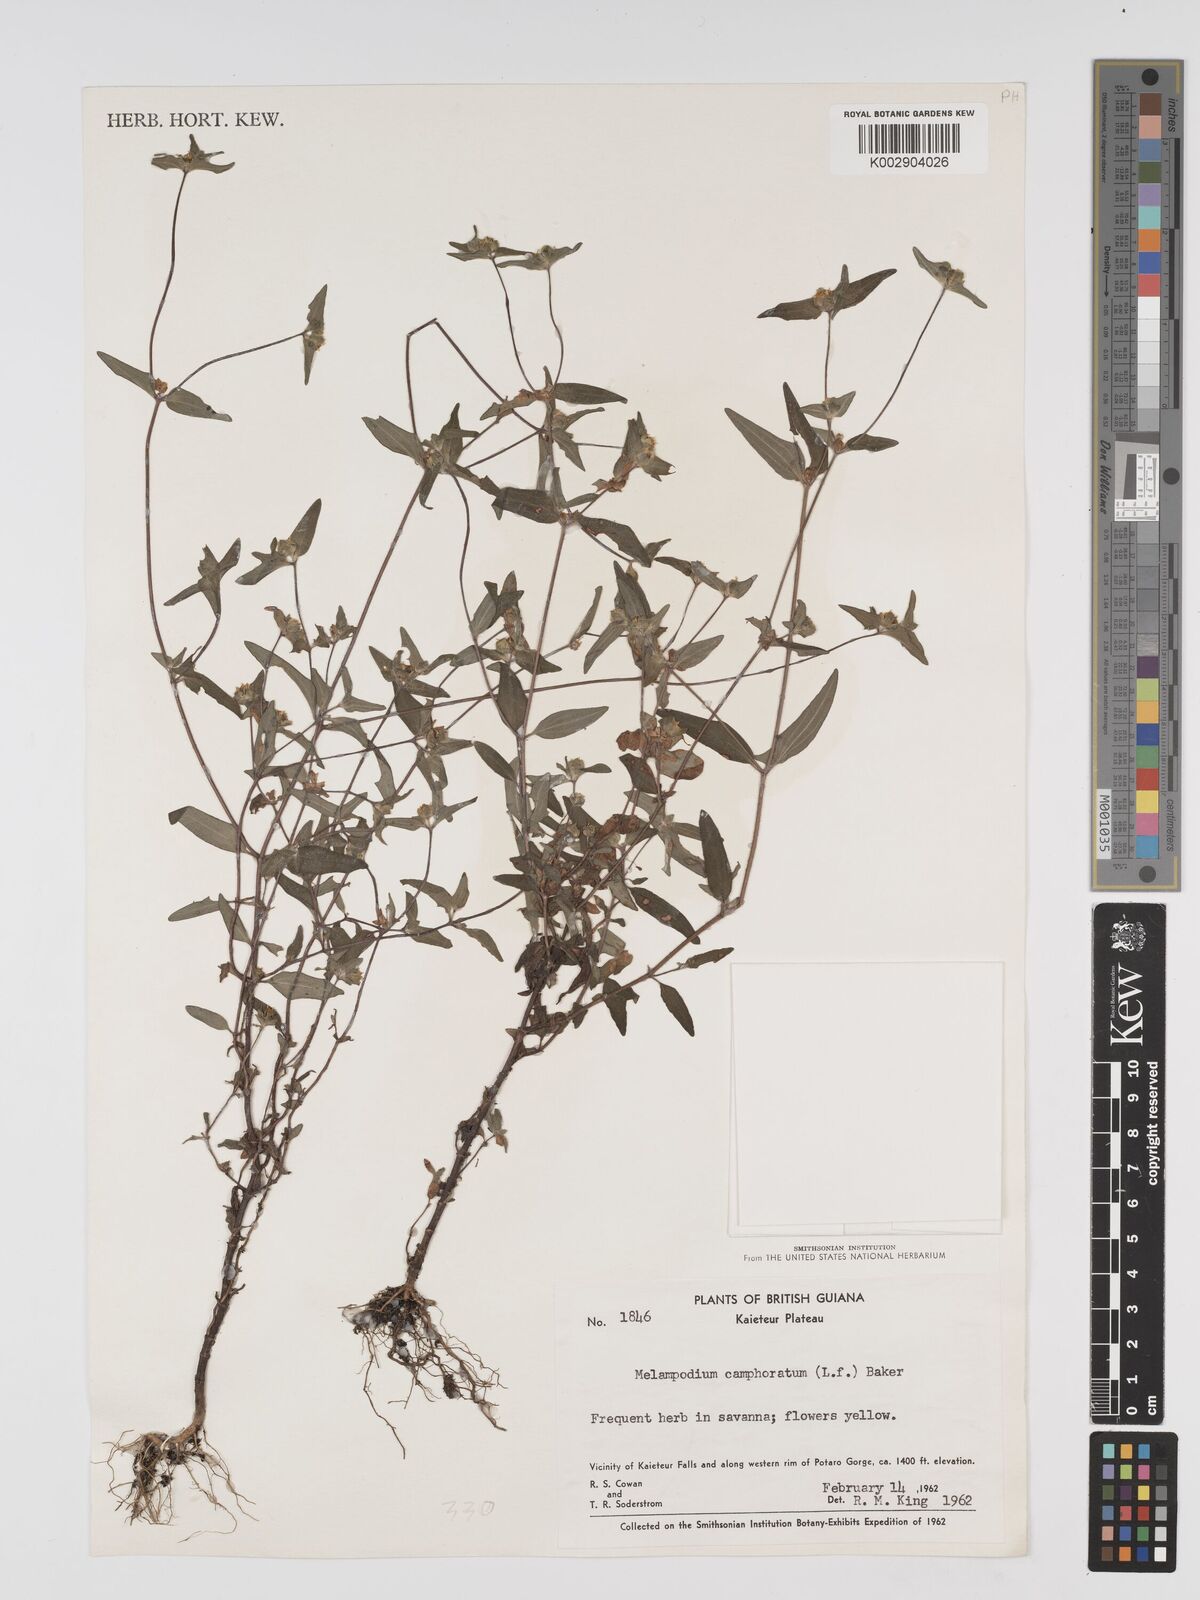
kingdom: Plantae
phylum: Tracheophyta
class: Magnoliopsida
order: Asterales
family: Asteraceae
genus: Unxia
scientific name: Unxia camphorata
